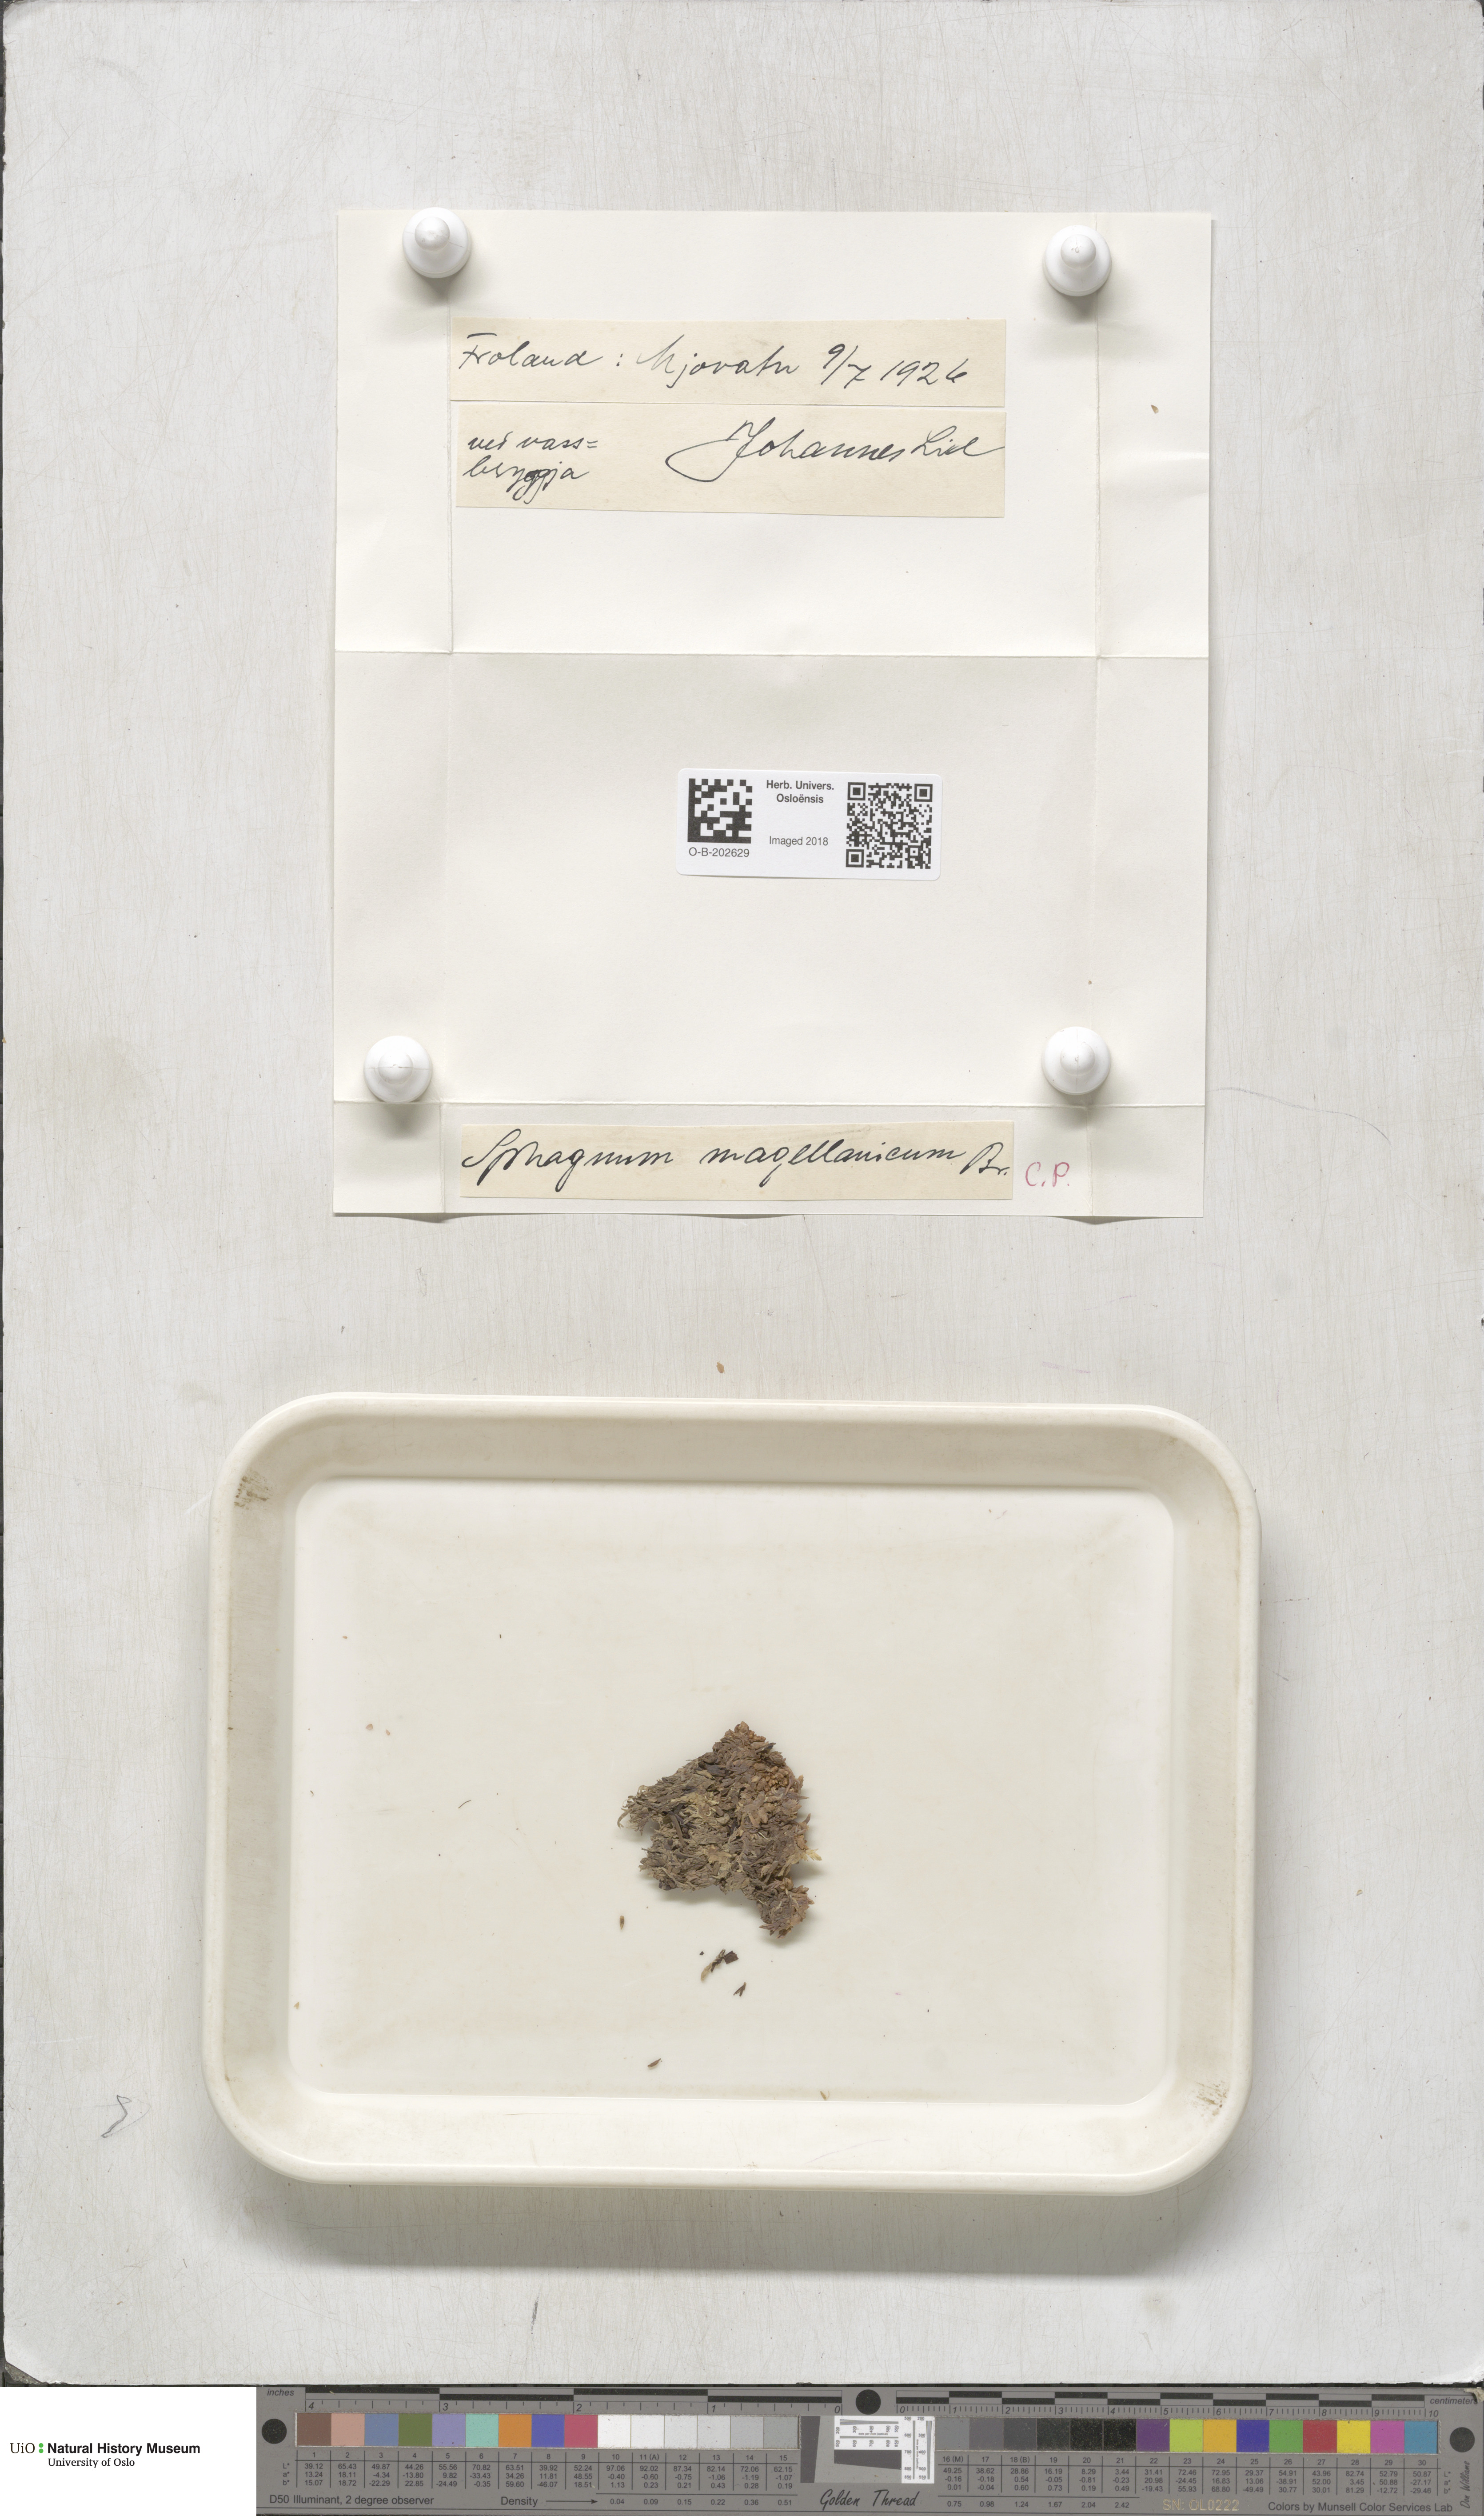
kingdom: Plantae
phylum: Bryophyta
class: Sphagnopsida
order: Sphagnales
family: Sphagnaceae
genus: Sphagnum
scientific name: Sphagnum magellanicum
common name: Magellan's peat moss
